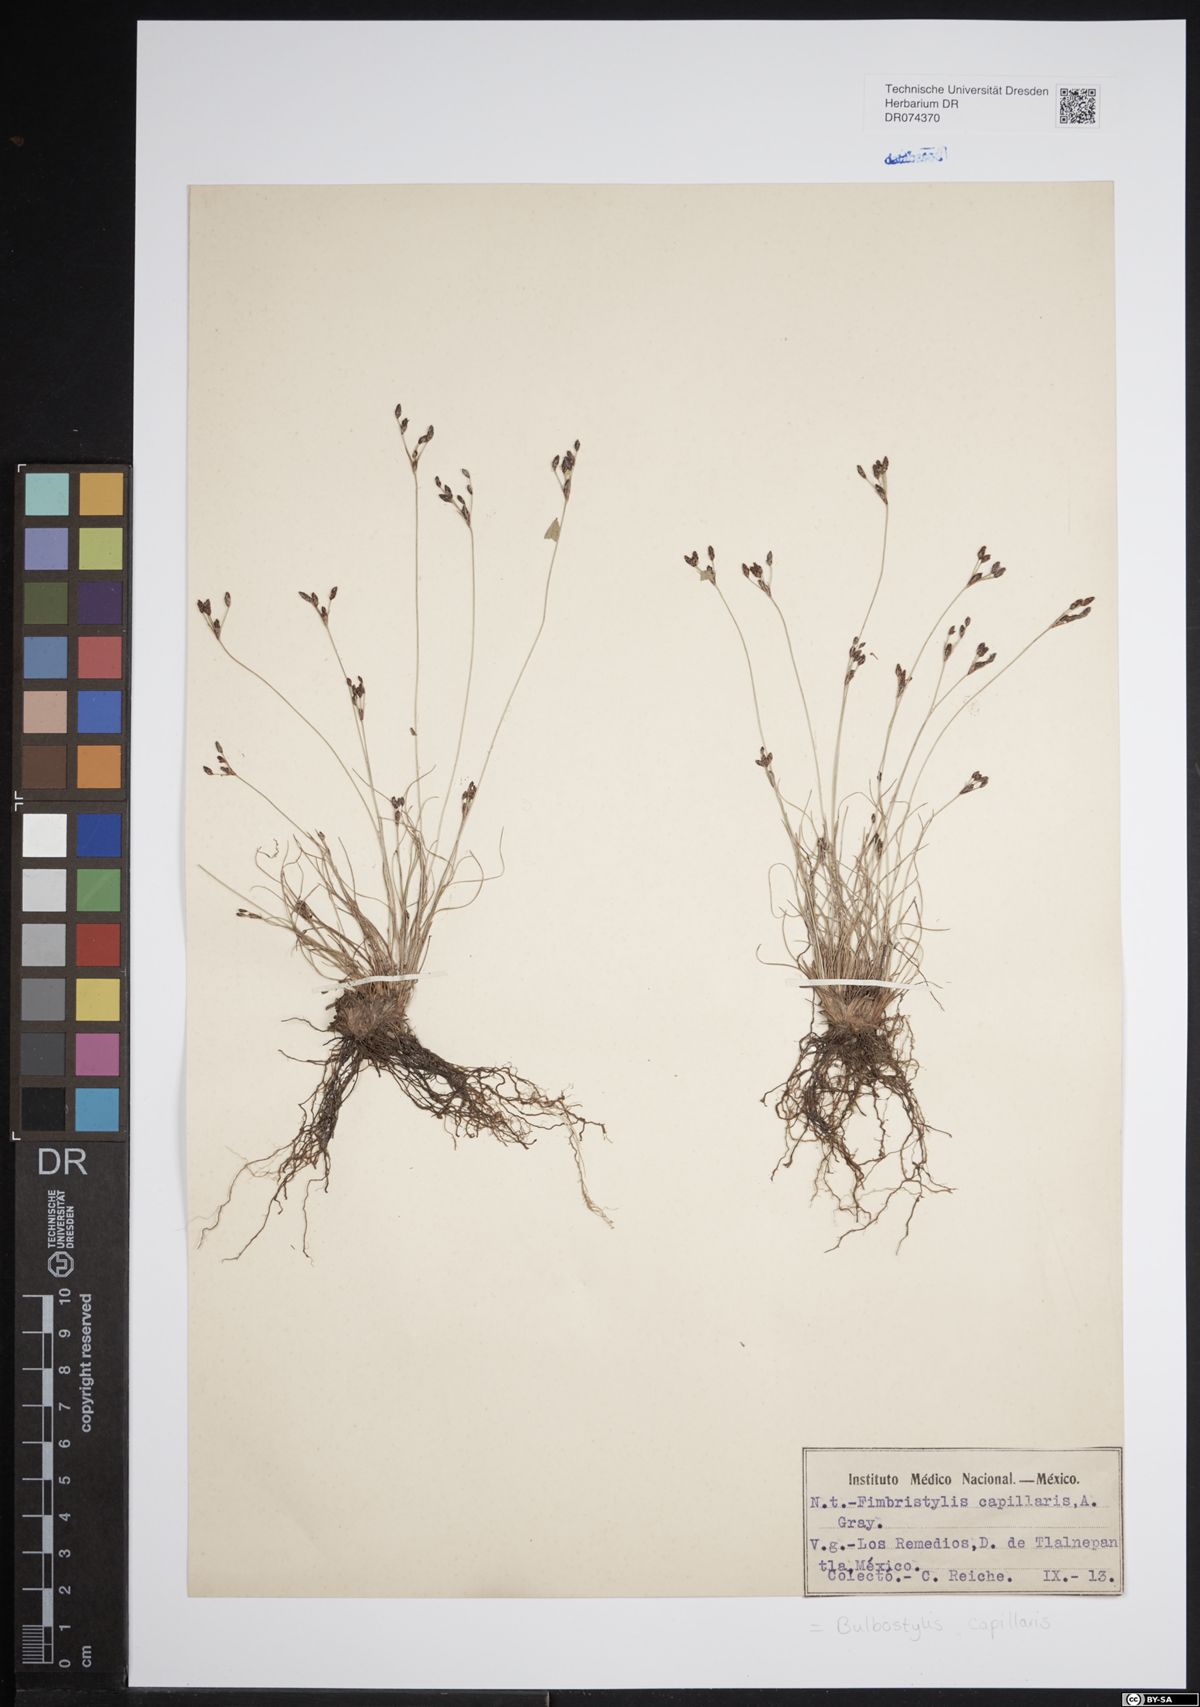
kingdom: Plantae
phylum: Tracheophyta
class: Liliopsida
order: Poales
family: Cyperaceae
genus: Bulbostylis
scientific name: Bulbostylis capillaris
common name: Densetuft hairsedge
